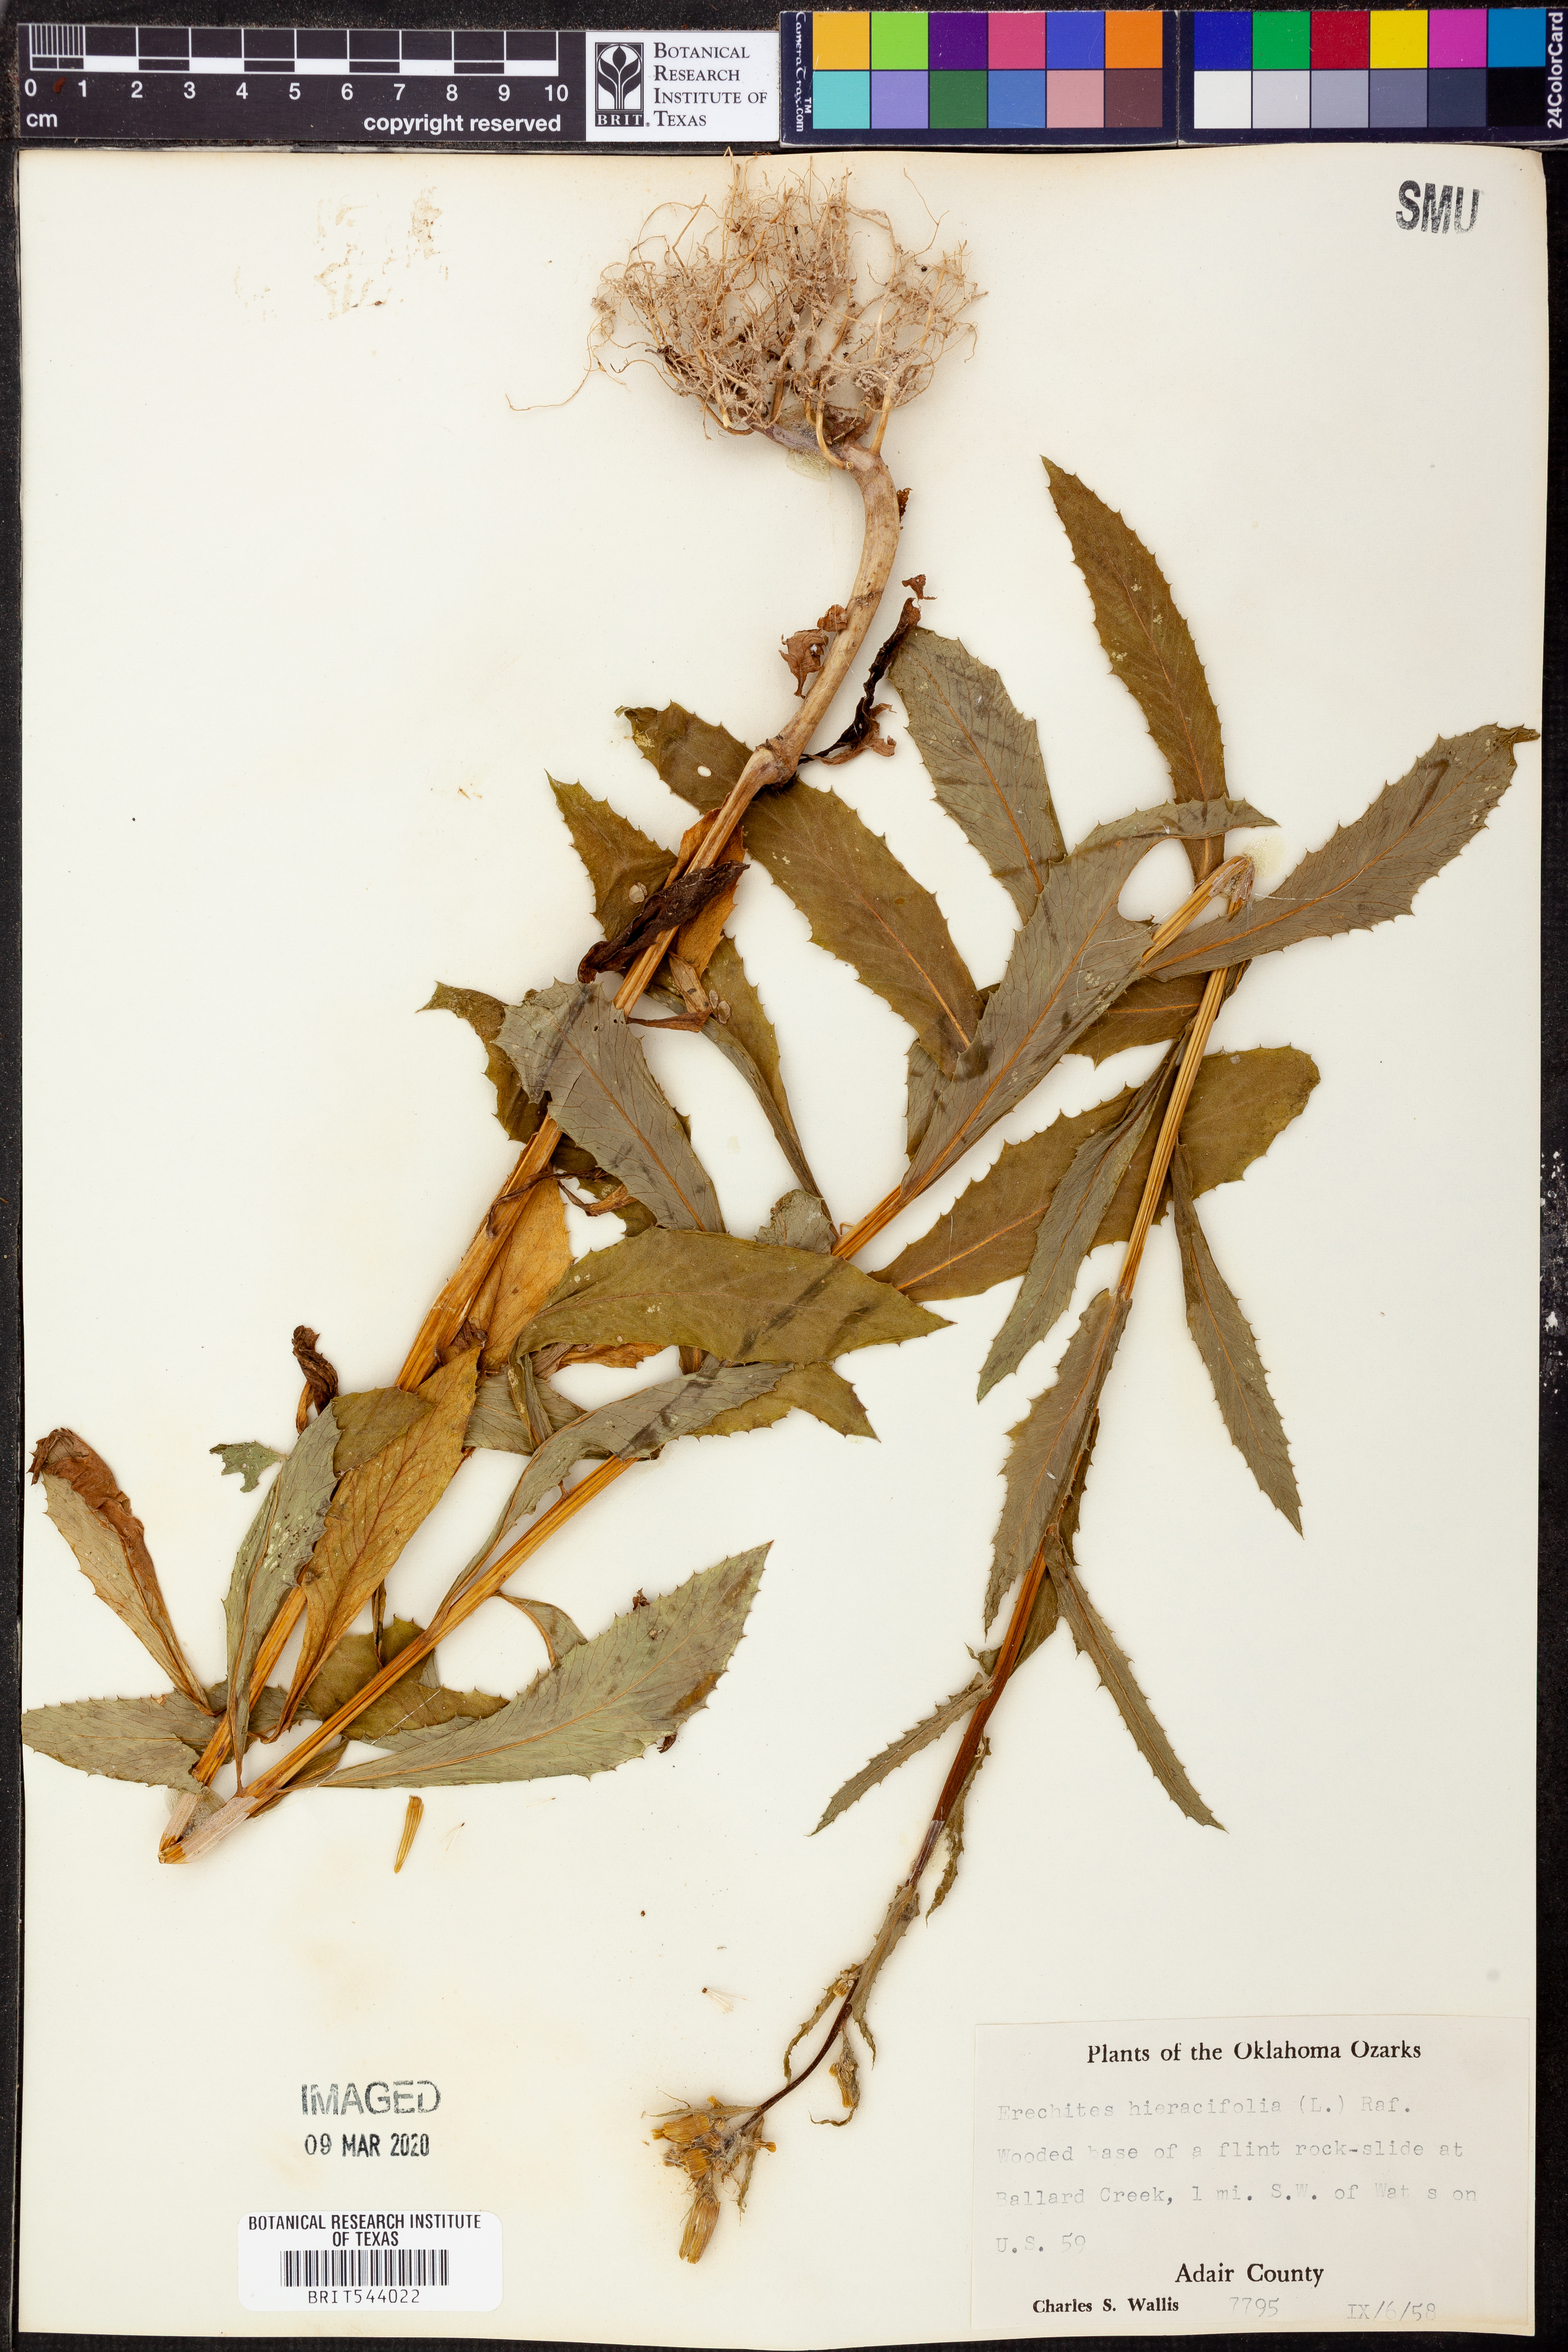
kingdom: Plantae
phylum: Tracheophyta
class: Magnoliopsida
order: Asterales
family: Asteraceae
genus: Erechtites
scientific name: Erechtites hieraciifolius
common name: American burnweed
